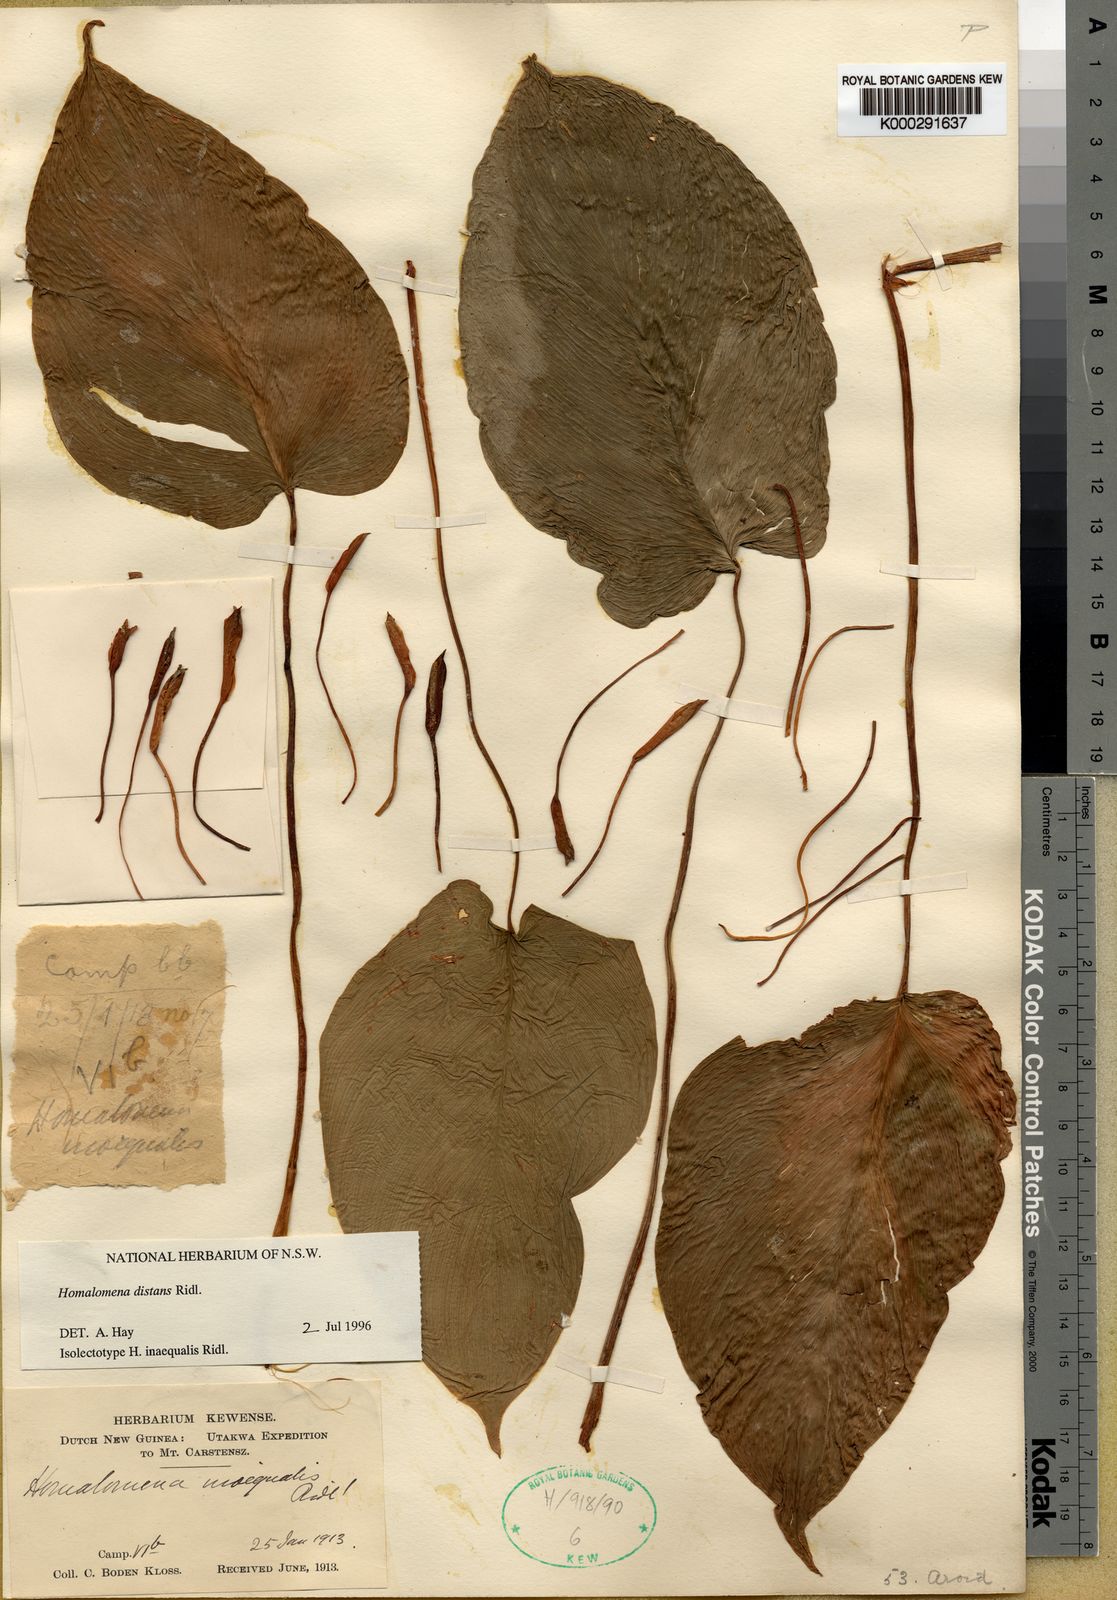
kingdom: Plantae
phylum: Tracheophyta
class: Liliopsida
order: Alismatales
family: Araceae
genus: Homalomena
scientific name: Homalomena distans
